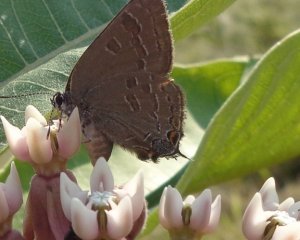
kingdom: Animalia
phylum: Arthropoda
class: Insecta
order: Lepidoptera
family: Lycaenidae
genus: Strymon
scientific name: Strymon caryaevorus
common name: Hickory Hairstreak
